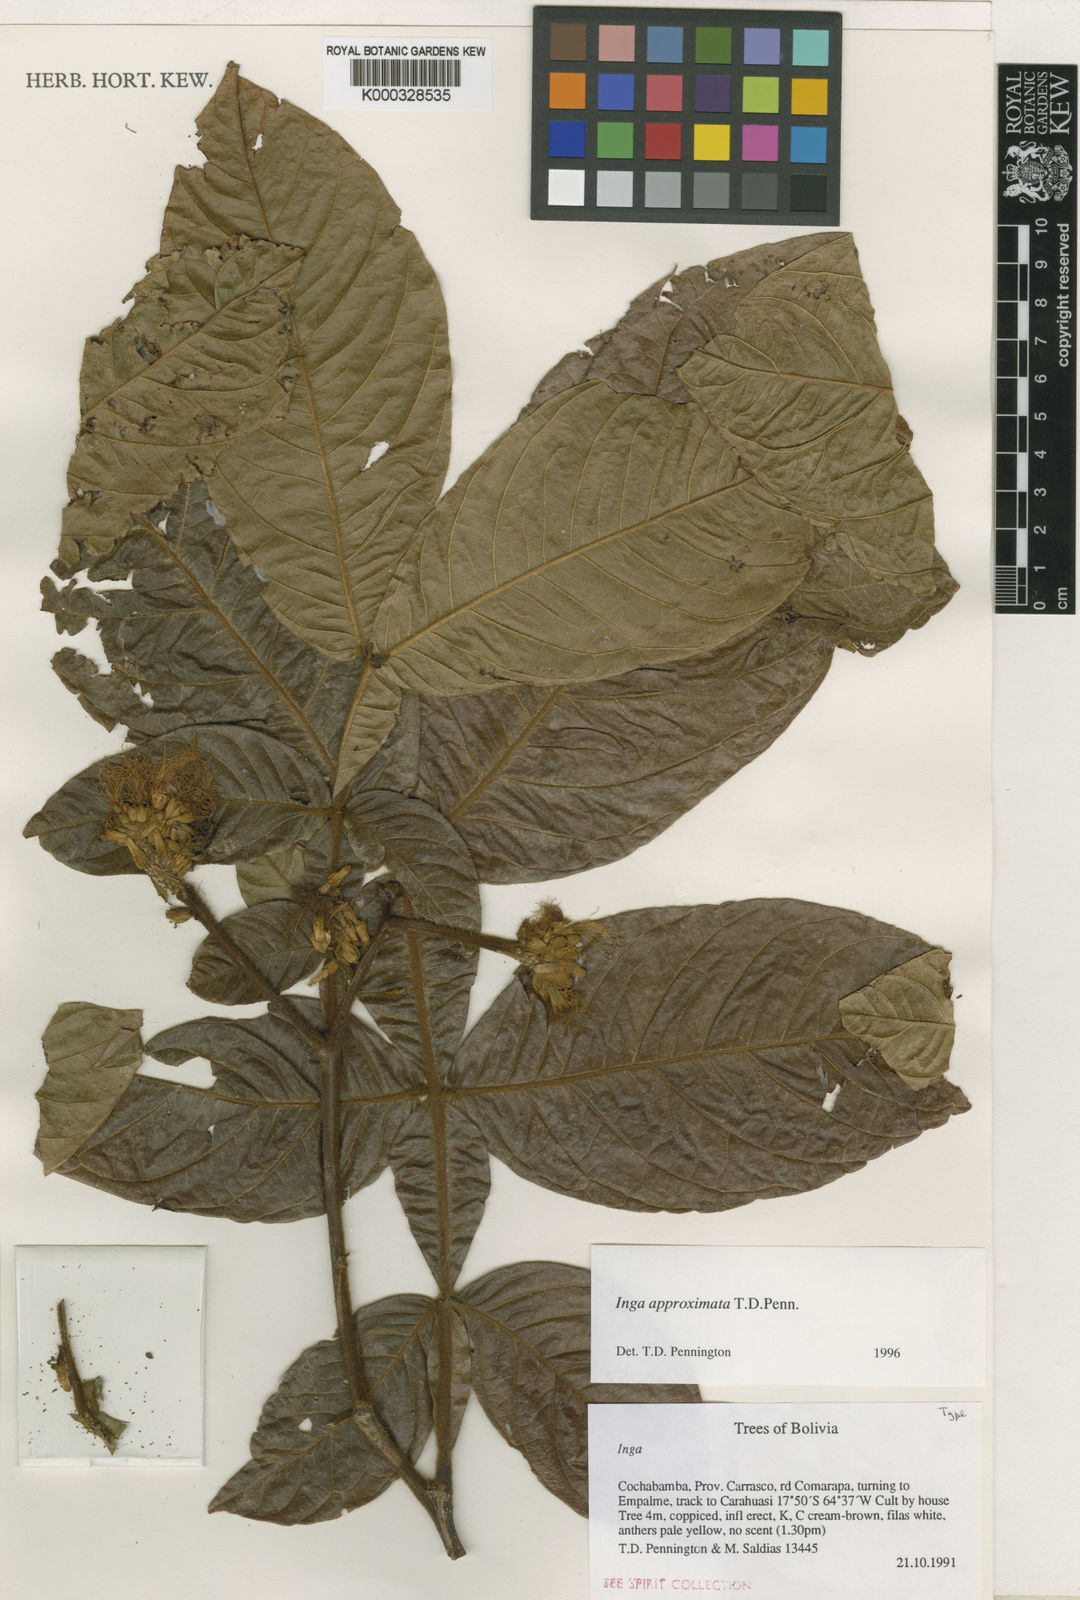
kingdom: Plantae
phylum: Tracheophyta
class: Magnoliopsida
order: Fabales
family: Fabaceae
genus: Inga
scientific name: Inga approximata
